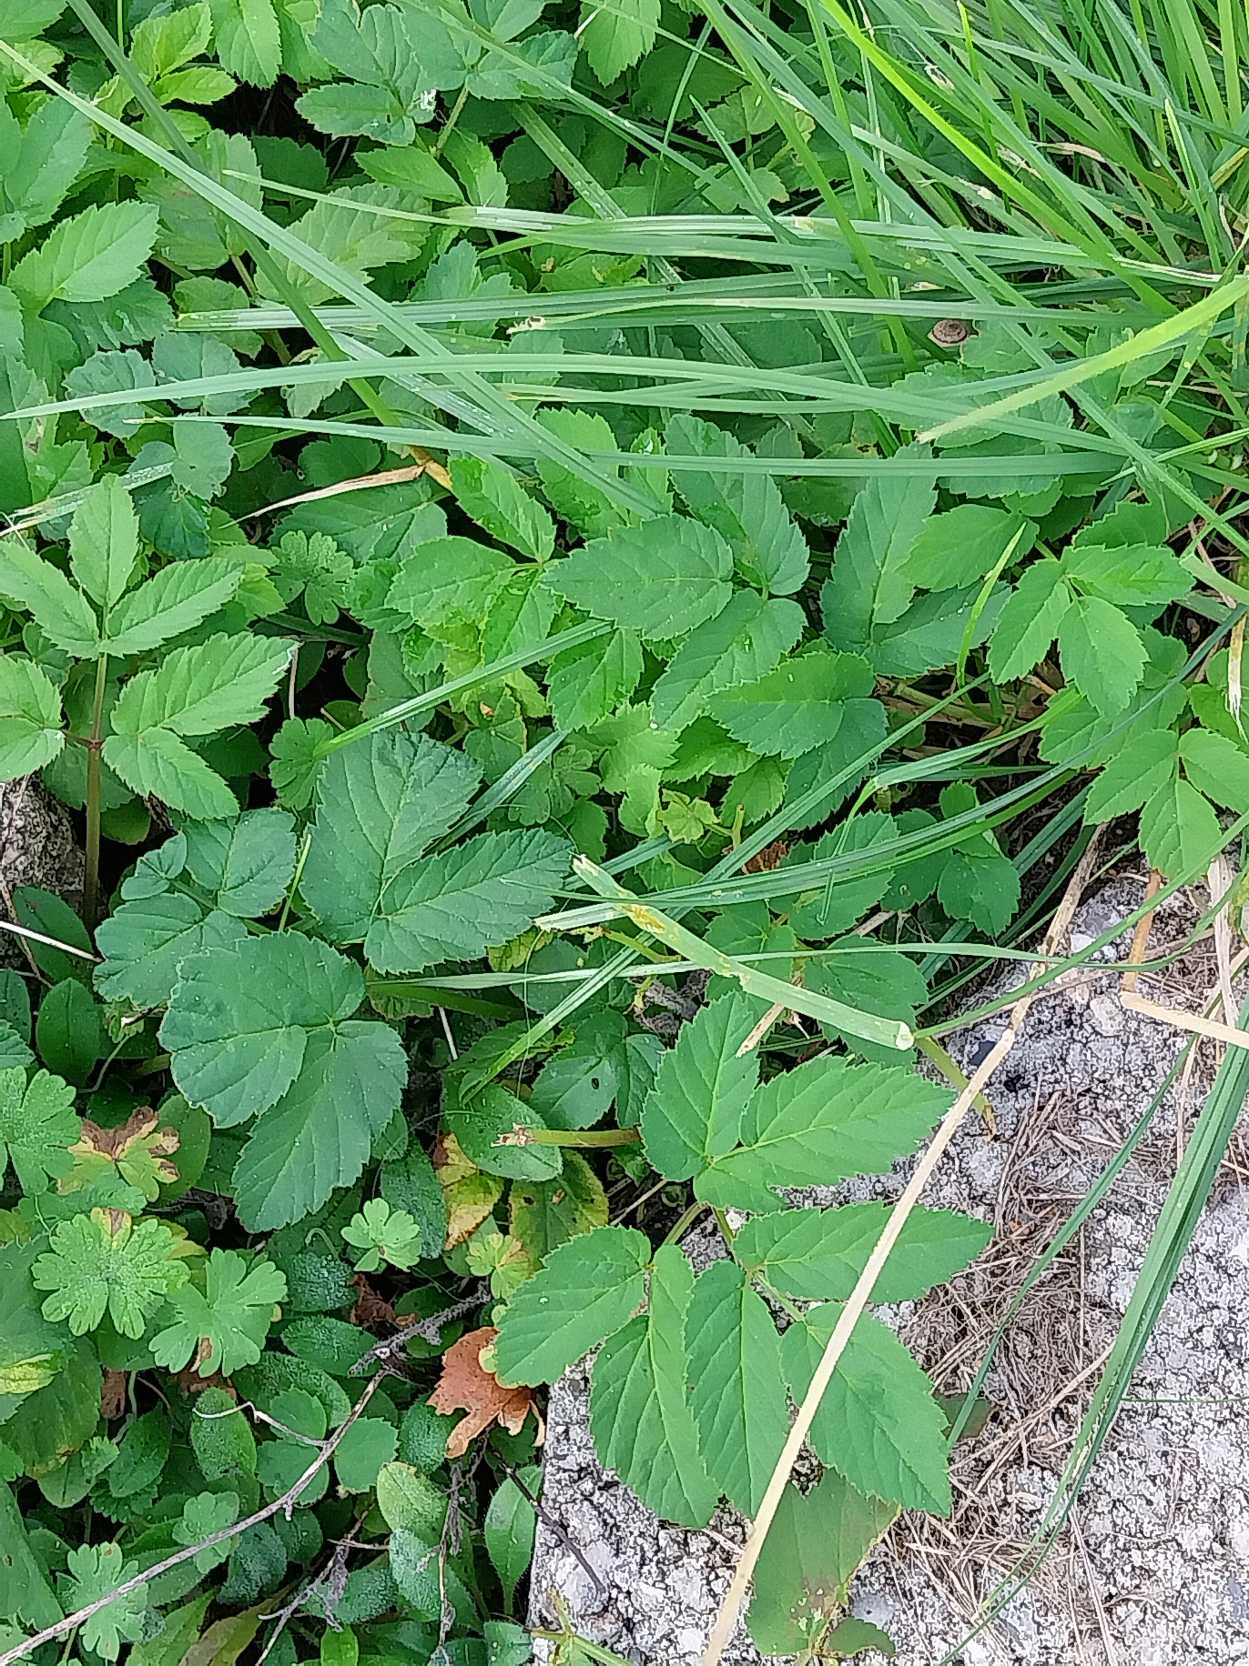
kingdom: Plantae
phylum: Tracheophyta
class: Magnoliopsida
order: Apiales
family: Apiaceae
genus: Aegopodium
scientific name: Aegopodium podagraria
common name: Skvalderkål
